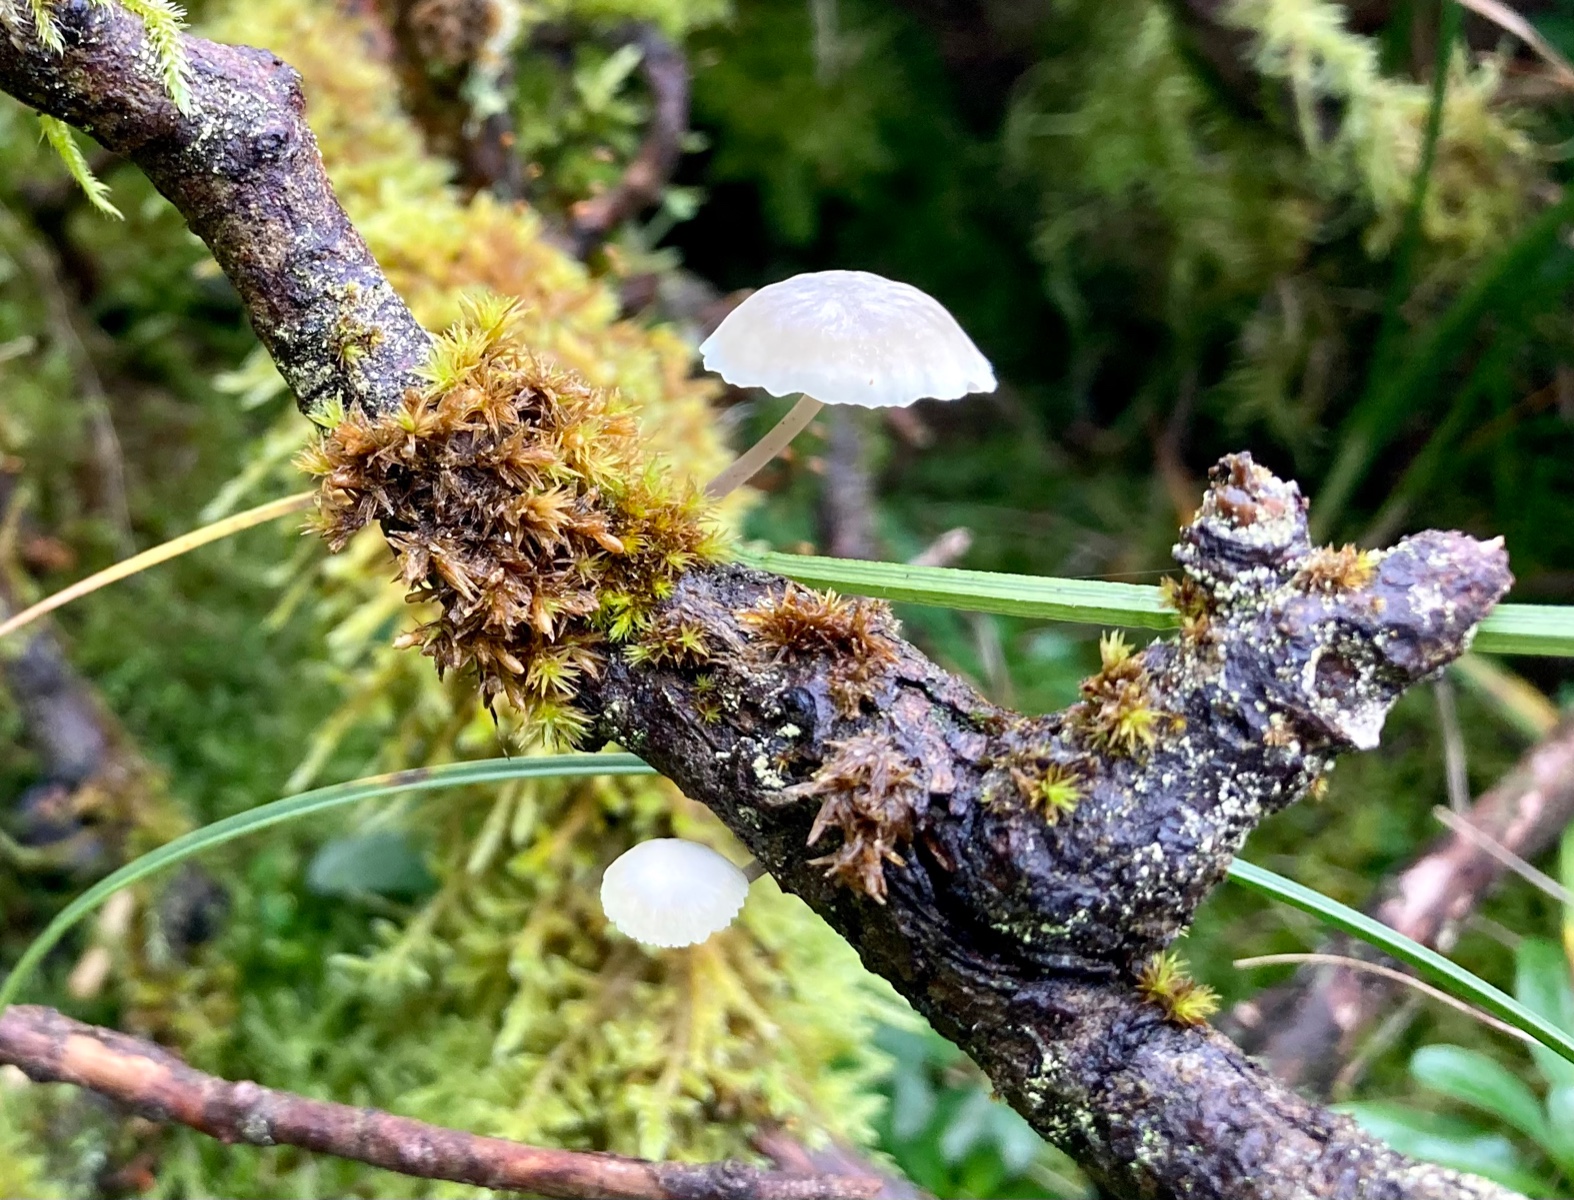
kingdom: Fungi
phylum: Basidiomycota
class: Agaricomycetes
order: Agaricales
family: Mycenaceae
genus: Mycena
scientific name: Mycena
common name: huesvamp
